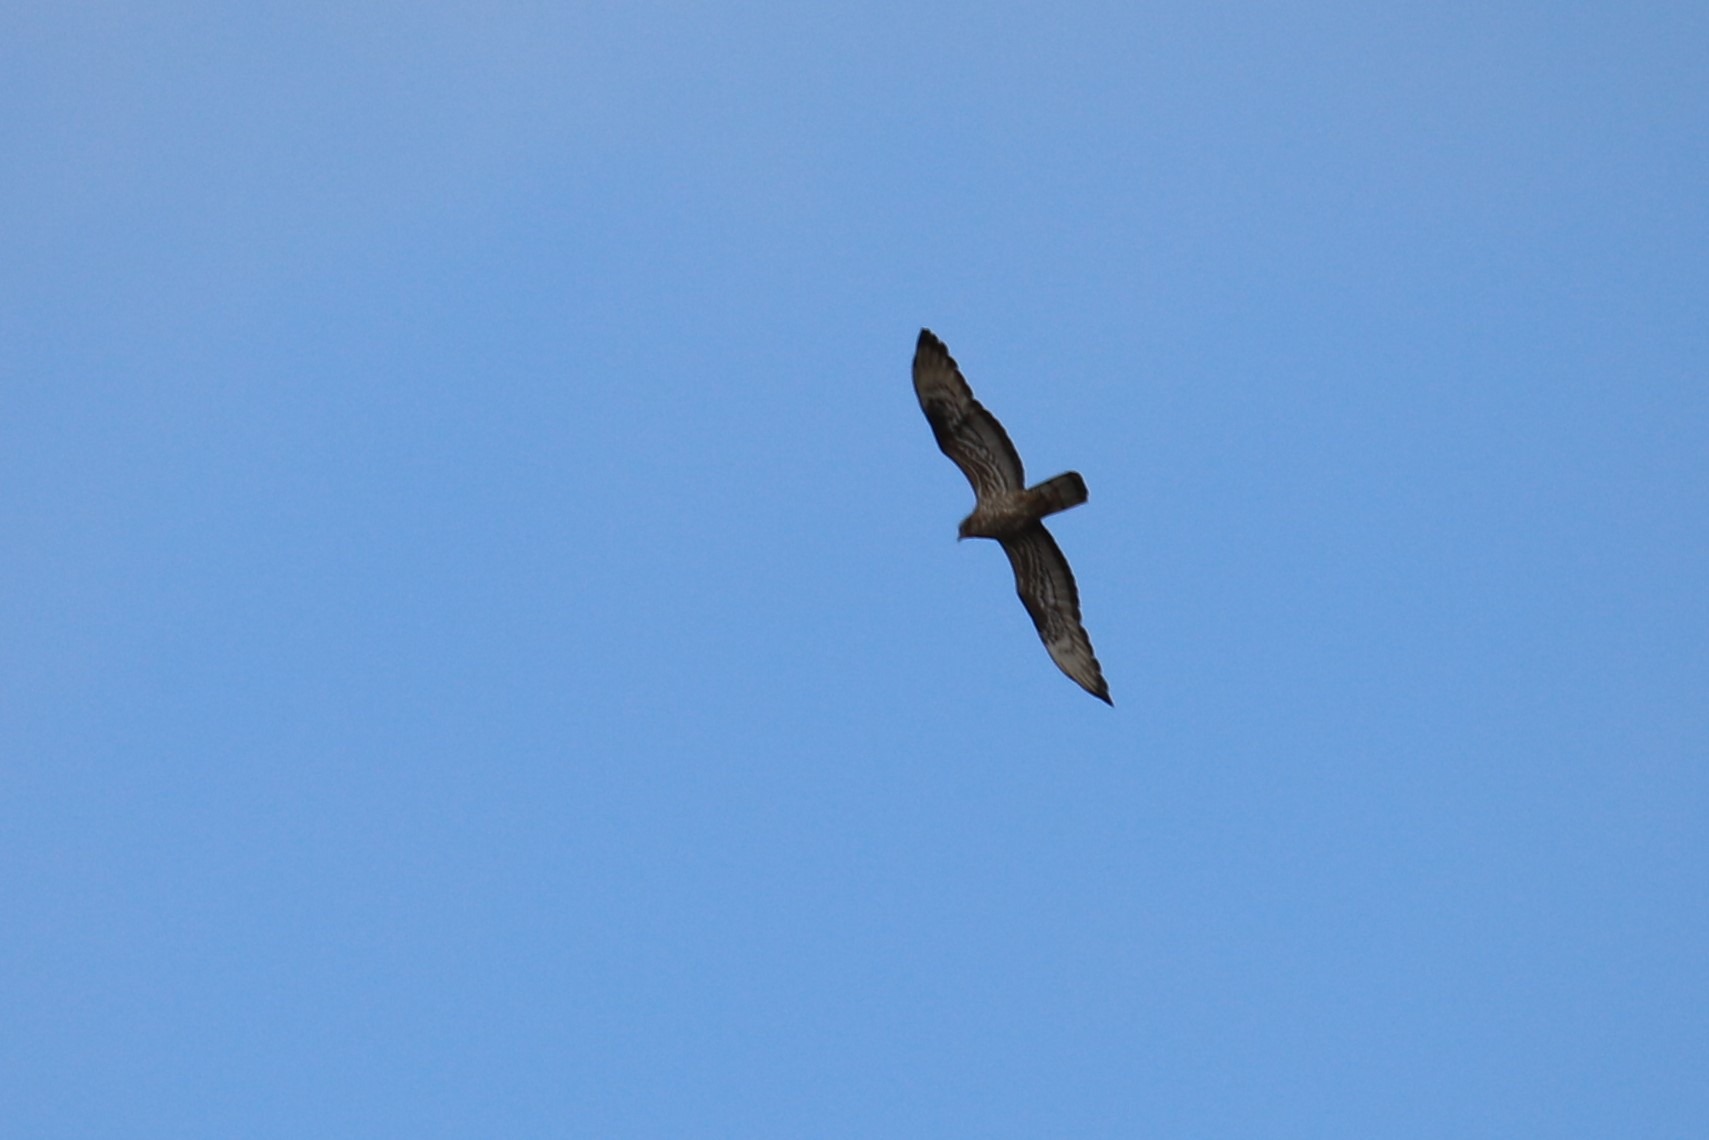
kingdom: Animalia
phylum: Chordata
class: Aves
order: Accipitriformes
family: Accipitridae
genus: Pernis
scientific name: Pernis apivorus
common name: Hvepsevåge
